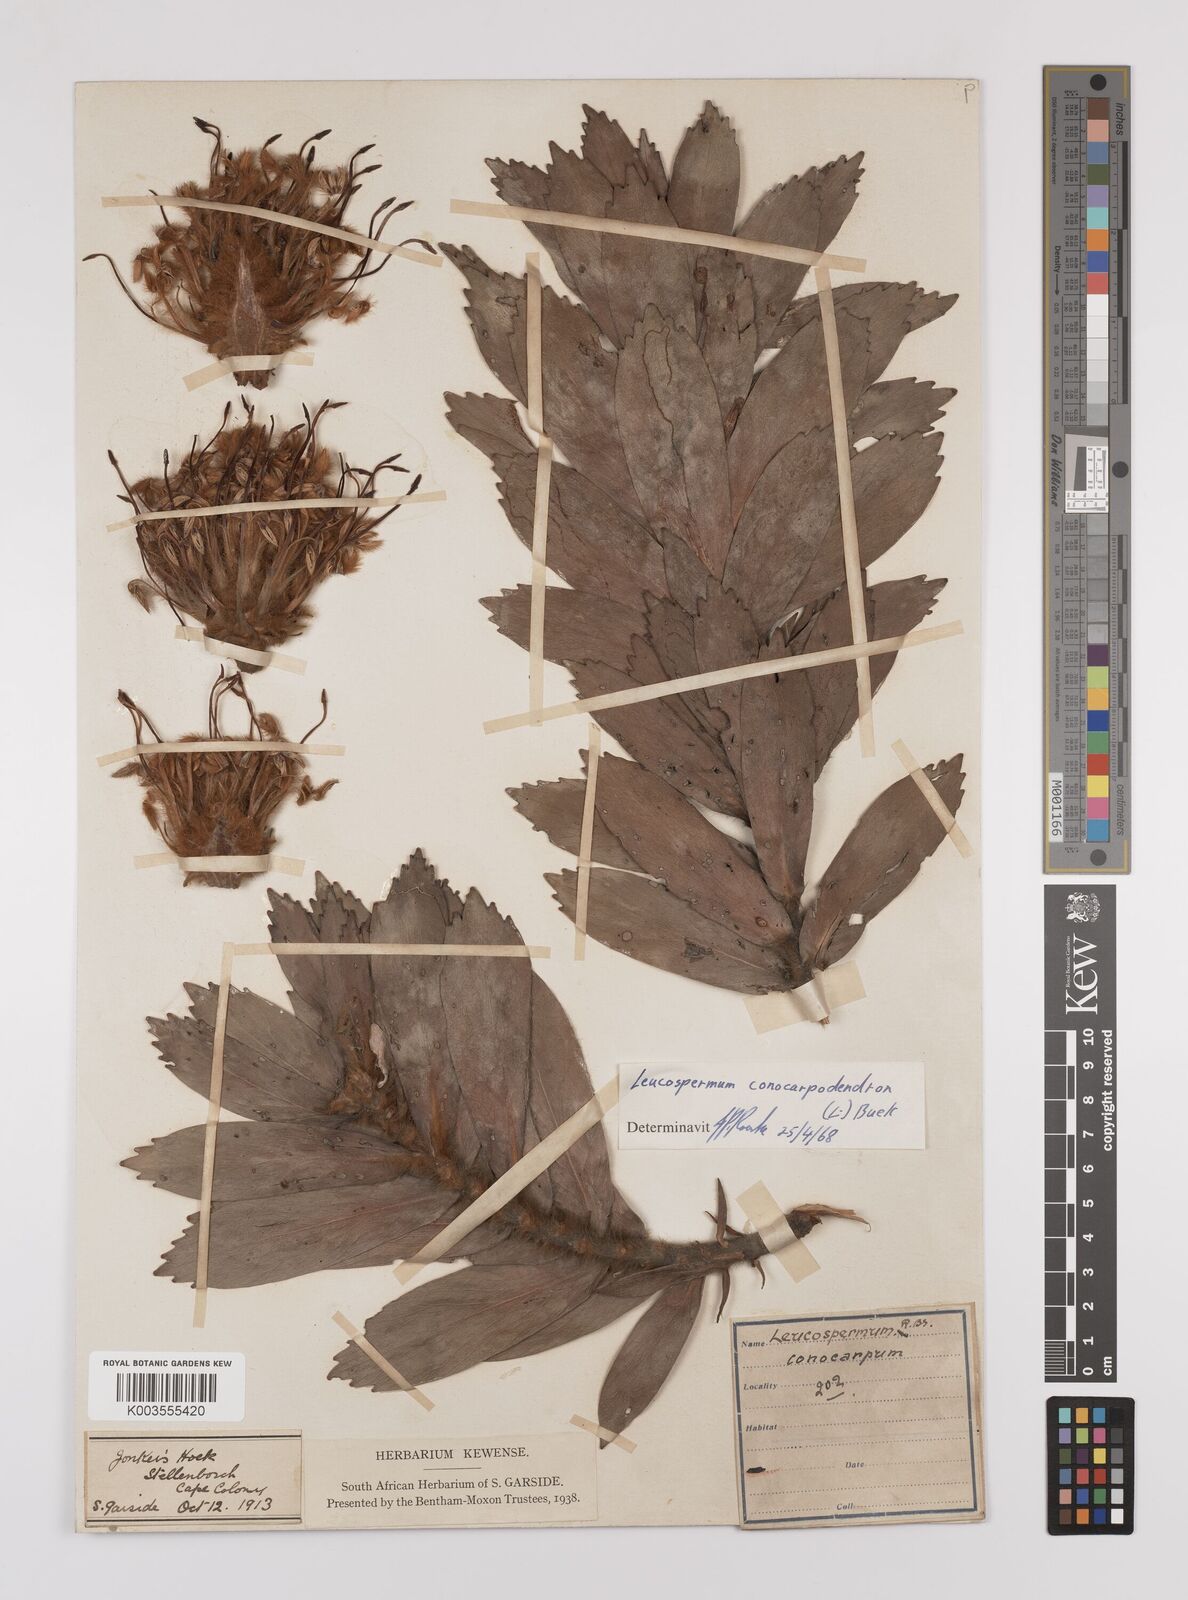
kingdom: Plantae
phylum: Tracheophyta
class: Magnoliopsida
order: Proteales
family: Proteaceae
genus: Leucospermum
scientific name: Leucospermum conocarpodendron
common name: Tree pincushion
